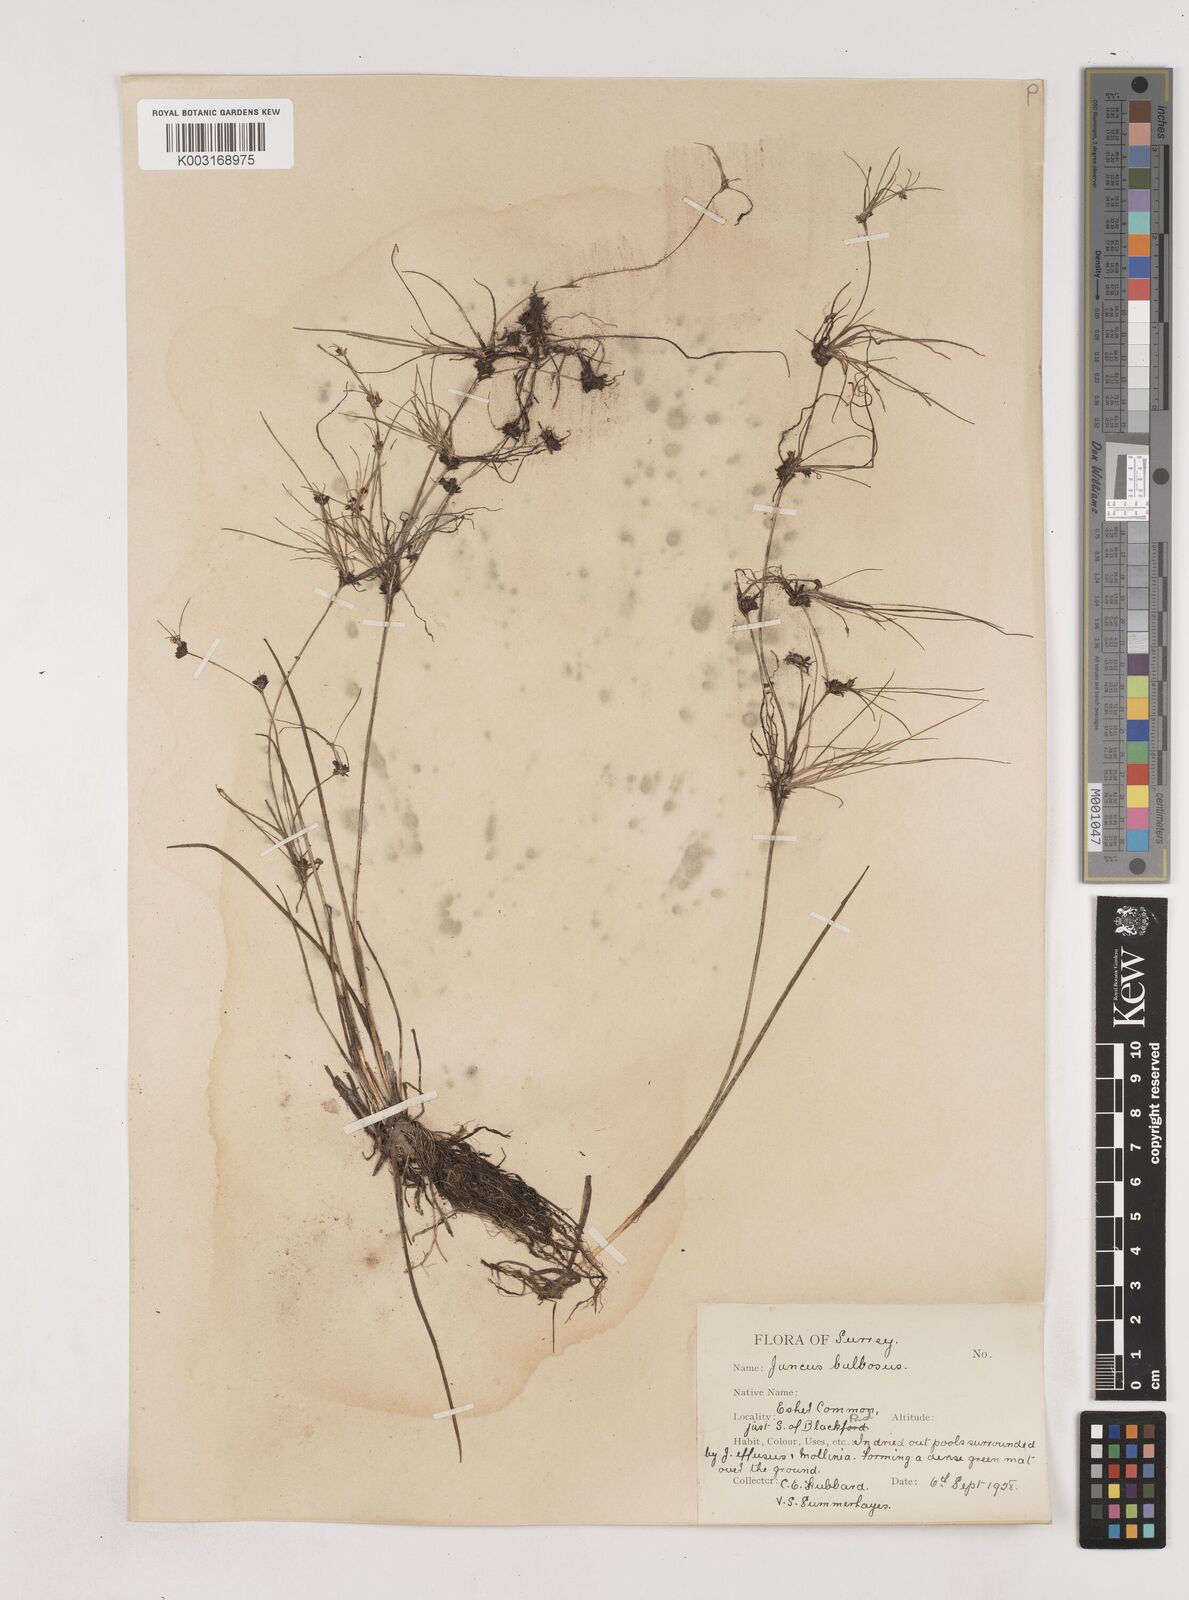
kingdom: Plantae
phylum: Tracheophyta
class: Liliopsida
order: Poales
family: Juncaceae
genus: Juncus
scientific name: Juncus bulbosus
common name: Bulbous rush
